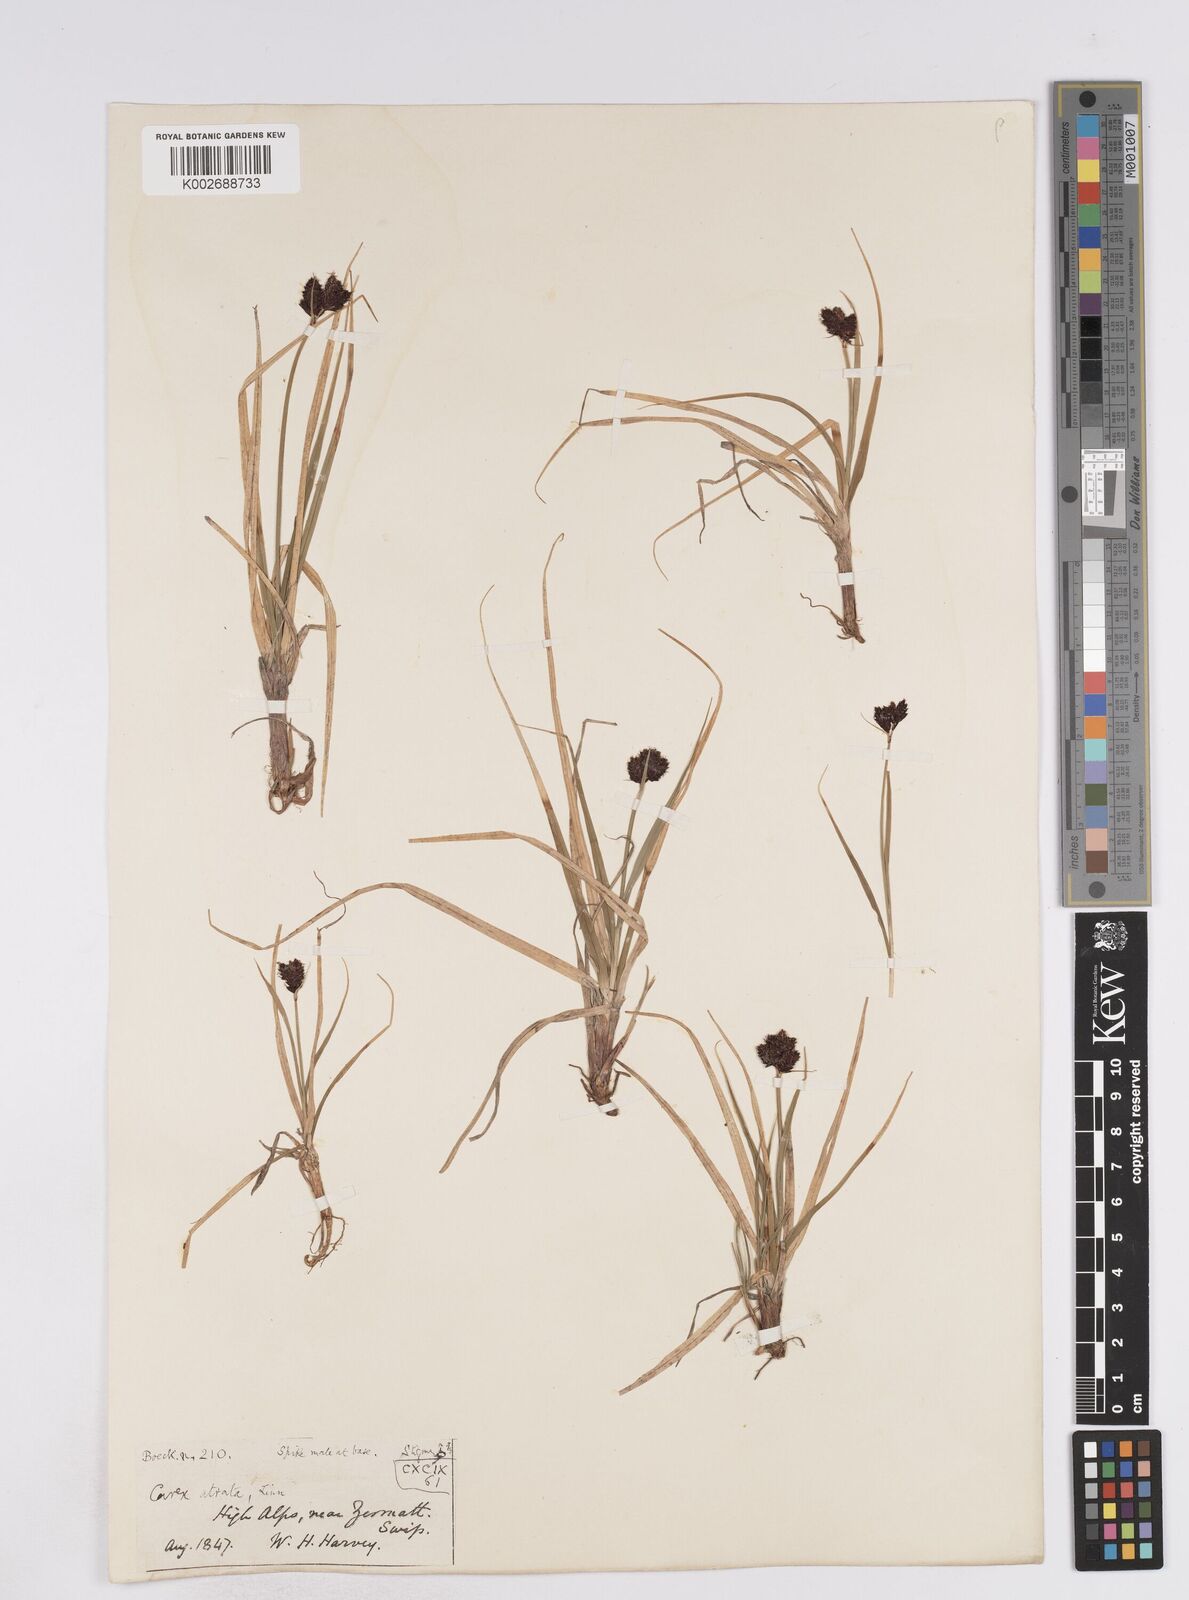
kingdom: Plantae
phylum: Tracheophyta
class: Liliopsida
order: Poales
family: Cyperaceae
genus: Carex
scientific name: Carex parviflora
